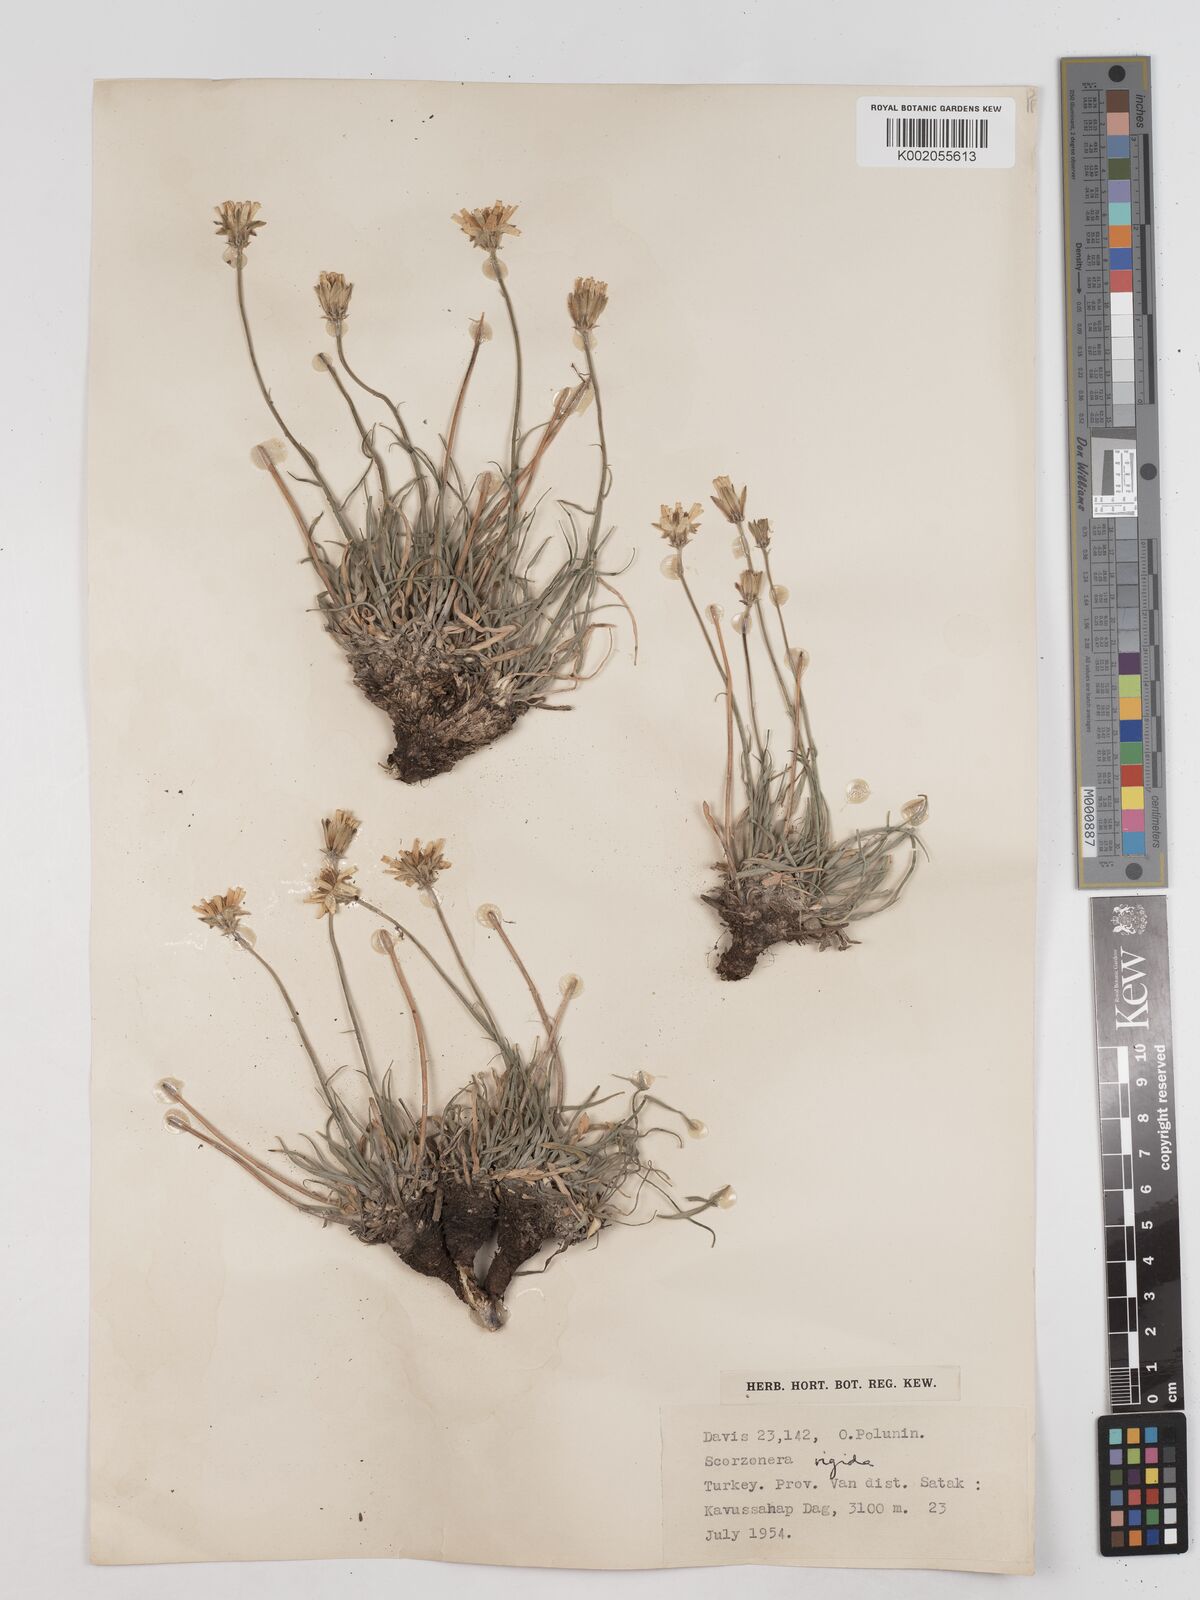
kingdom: Plantae
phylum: Tracheophyta
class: Magnoliopsida
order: Asterales
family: Asteraceae
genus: Scorzonera
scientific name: Scorzonera
